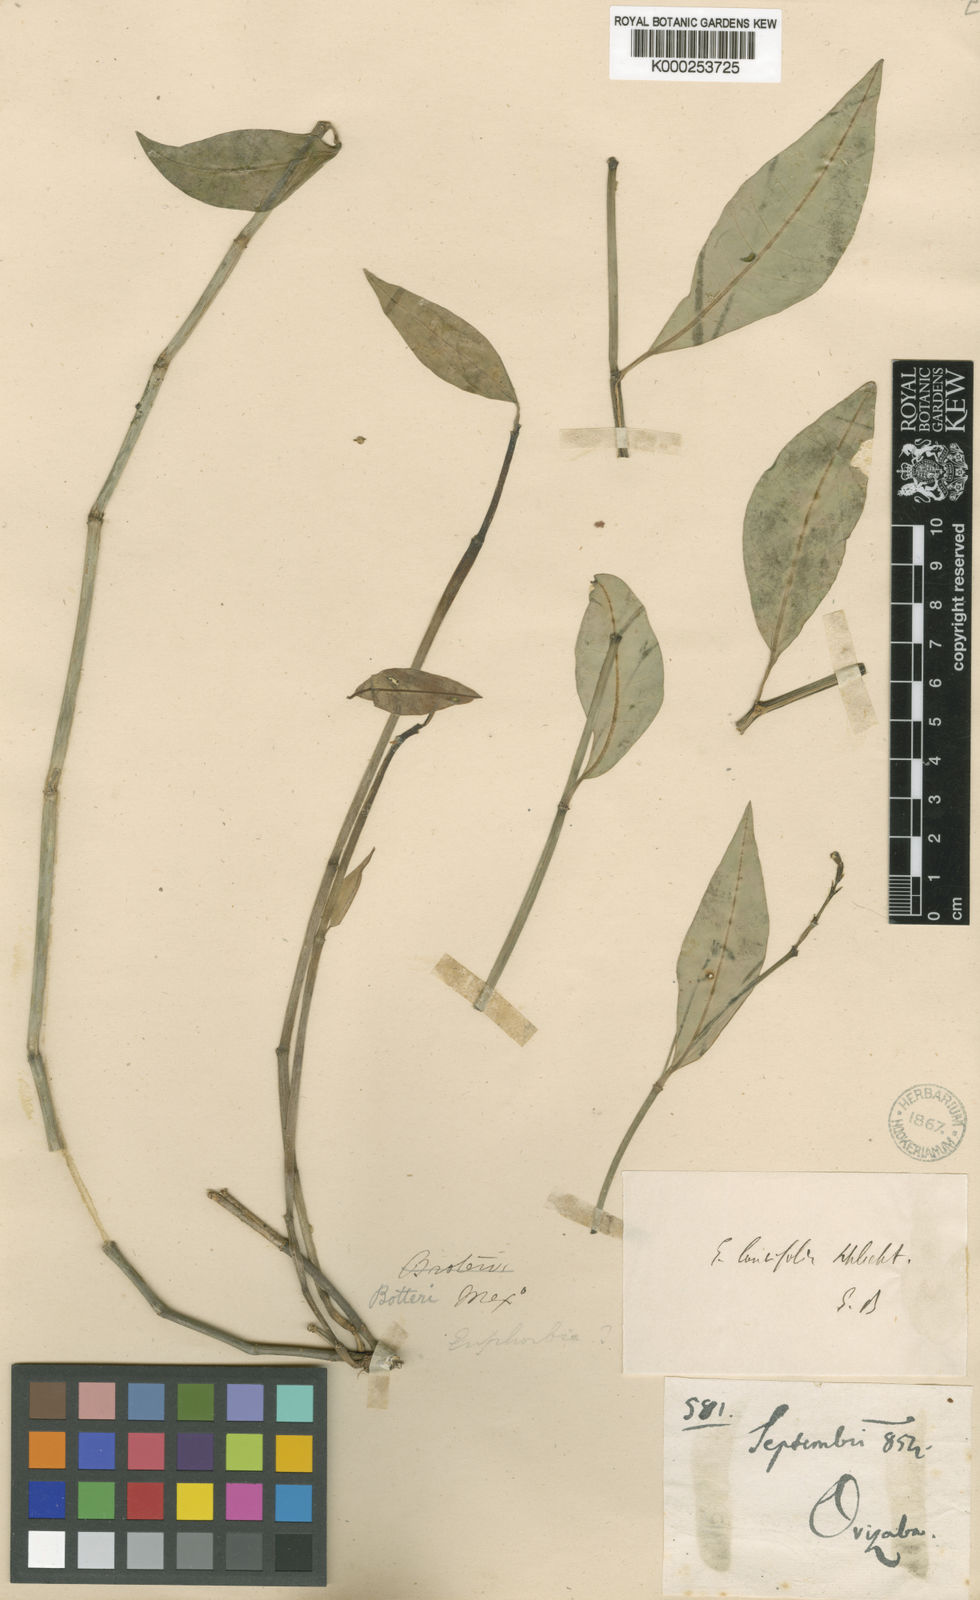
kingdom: Plantae
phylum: Tracheophyta
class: Magnoliopsida
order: Malpighiales
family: Euphorbiaceae
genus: Euphorbia
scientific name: Euphorbia lancifolia
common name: Ixbut
